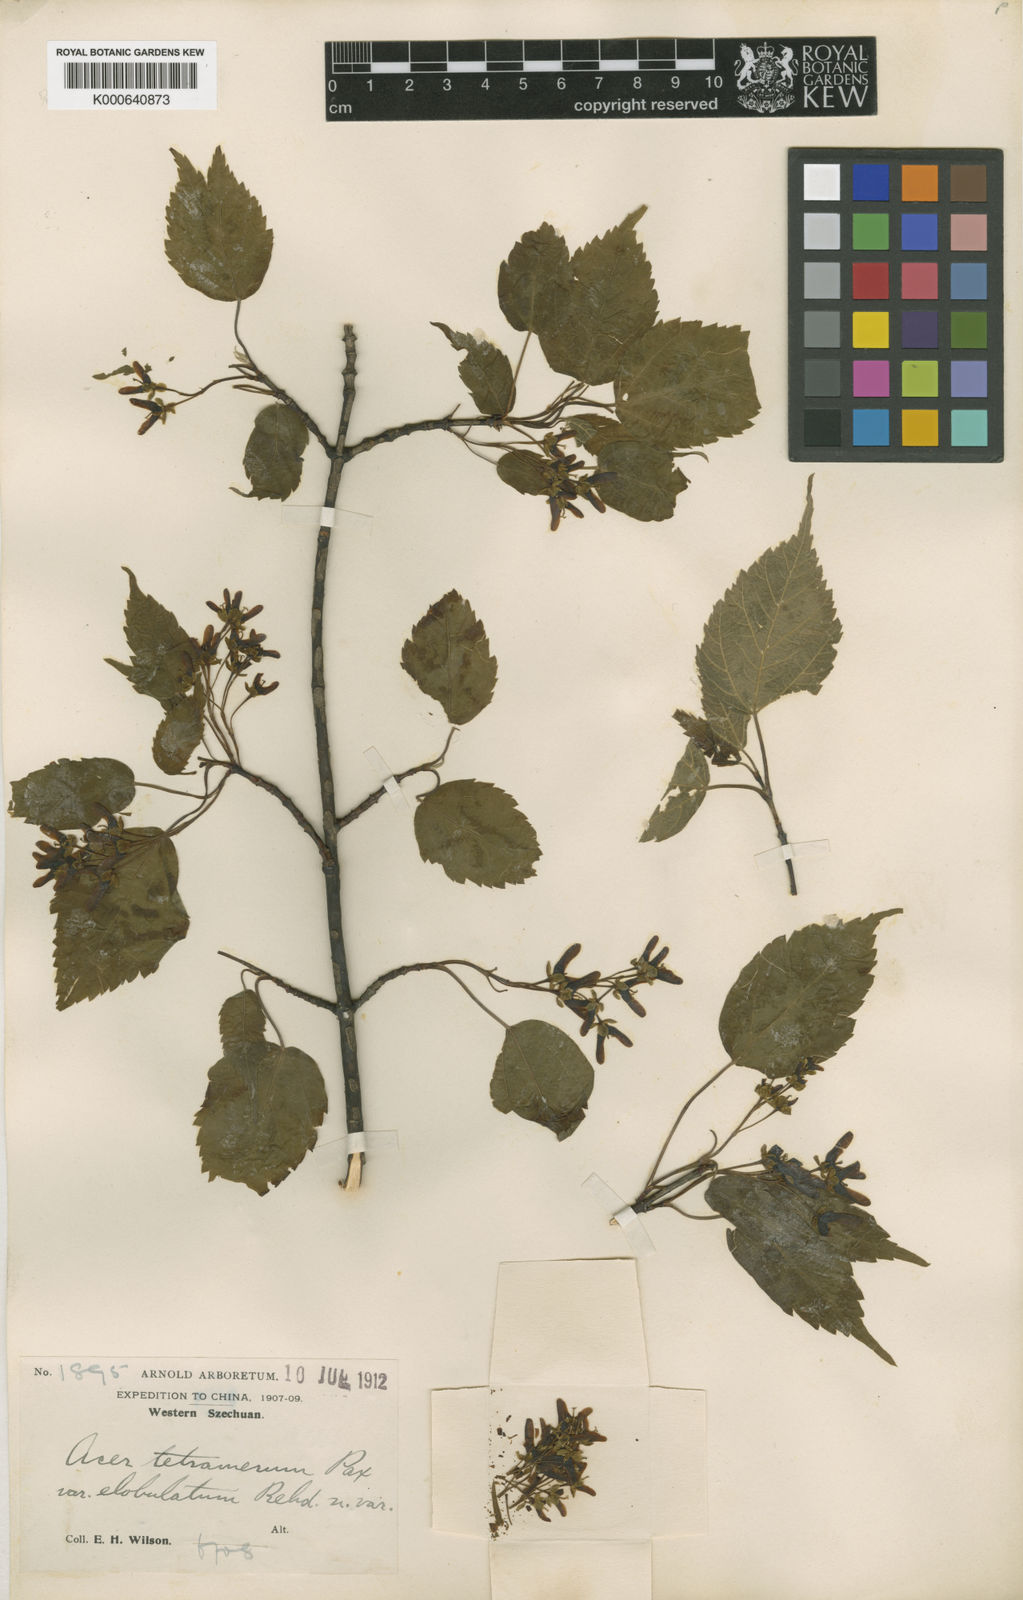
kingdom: Plantae
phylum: Tracheophyta
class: Magnoliopsida
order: Sapindales
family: Sapindaceae
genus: Acer
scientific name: Acer stachyophyllum
